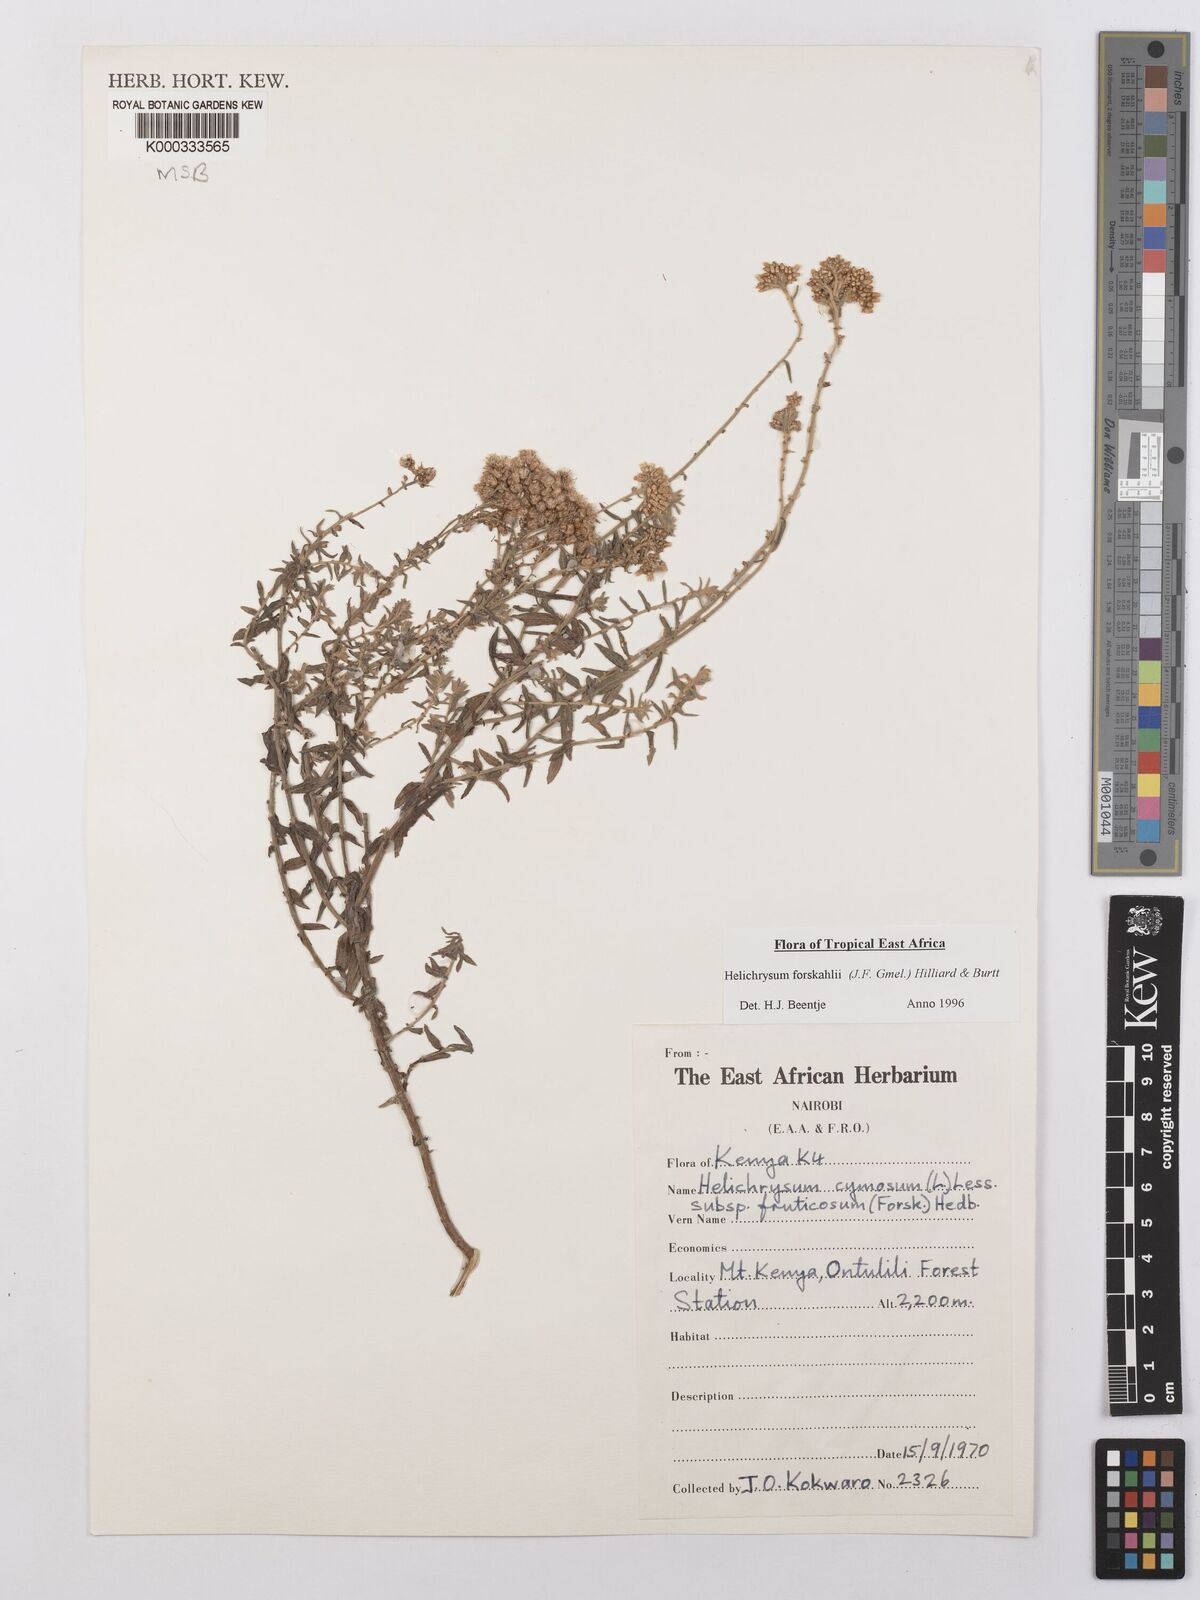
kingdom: Plantae
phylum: Tracheophyta
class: Magnoliopsida
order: Asterales
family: Asteraceae
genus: Helichrysum
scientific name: Helichrysum
